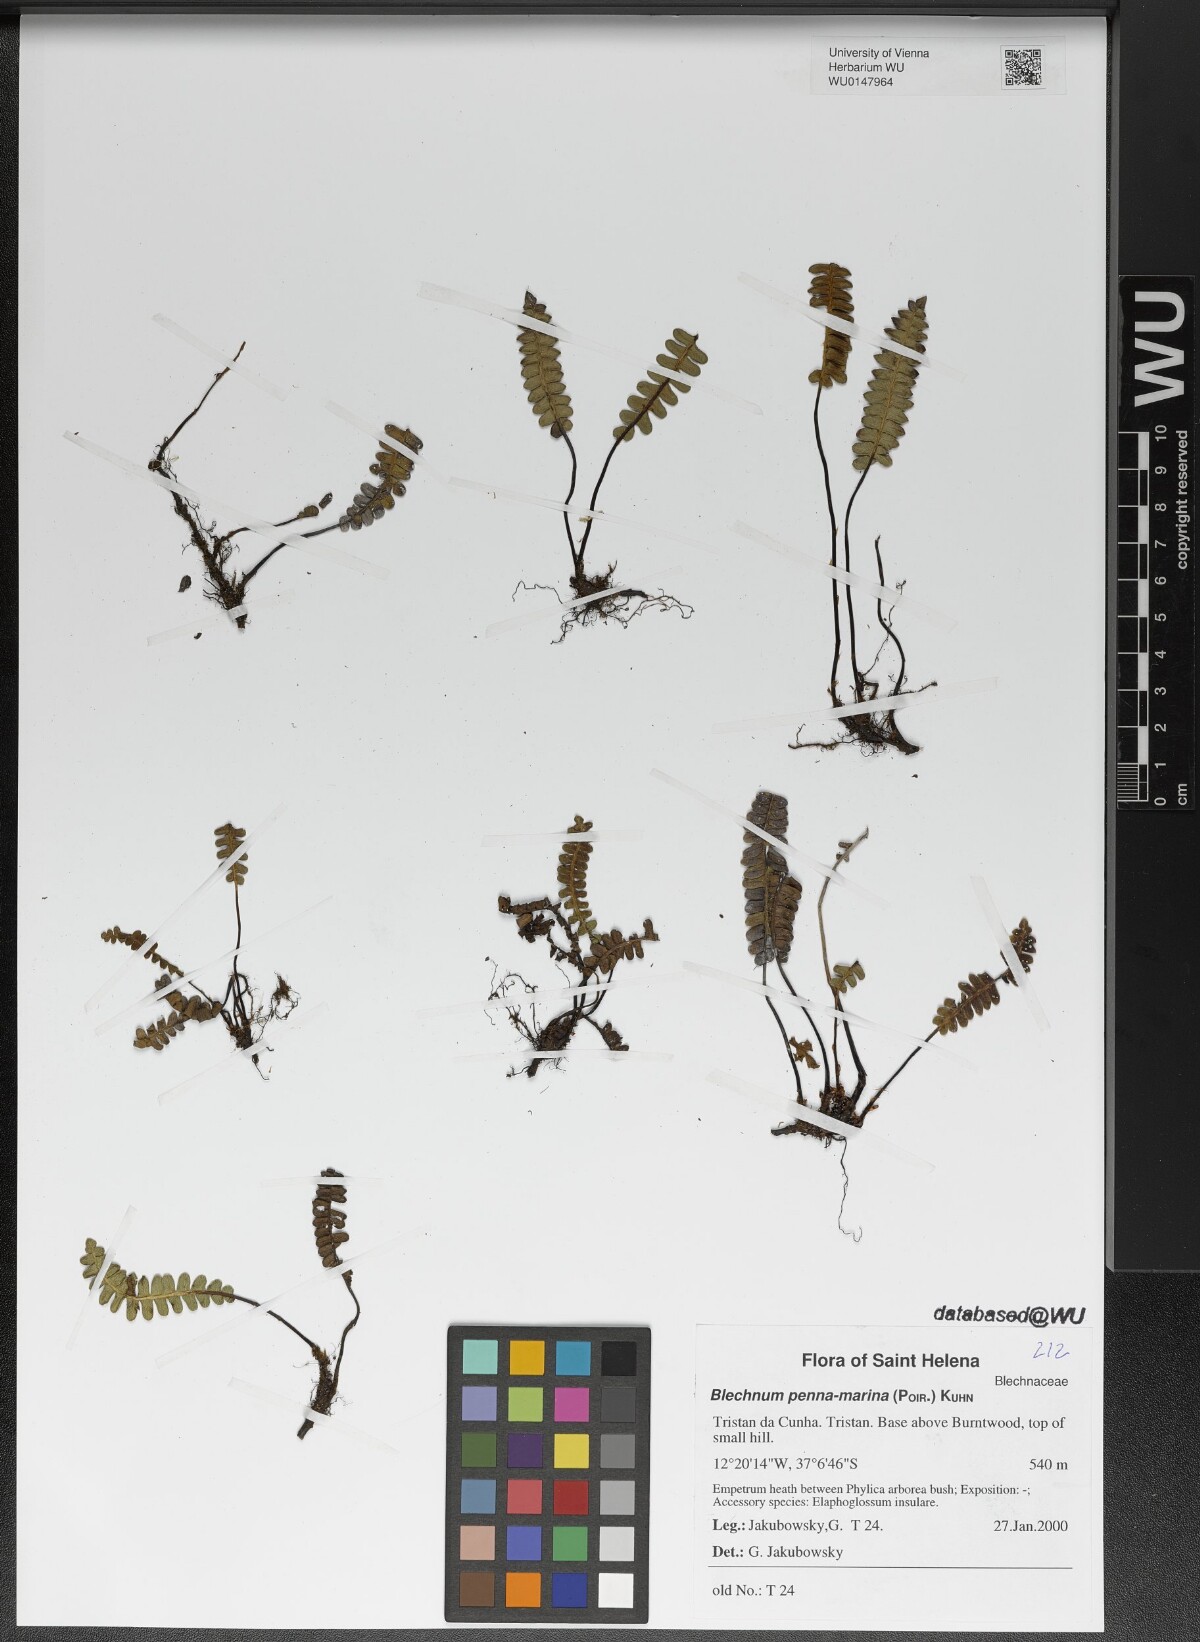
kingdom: Plantae
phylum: Tracheophyta
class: Polypodiopsida
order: Polypodiales
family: Blechnaceae
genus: Austroblechnum
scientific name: Austroblechnum penna-marina
